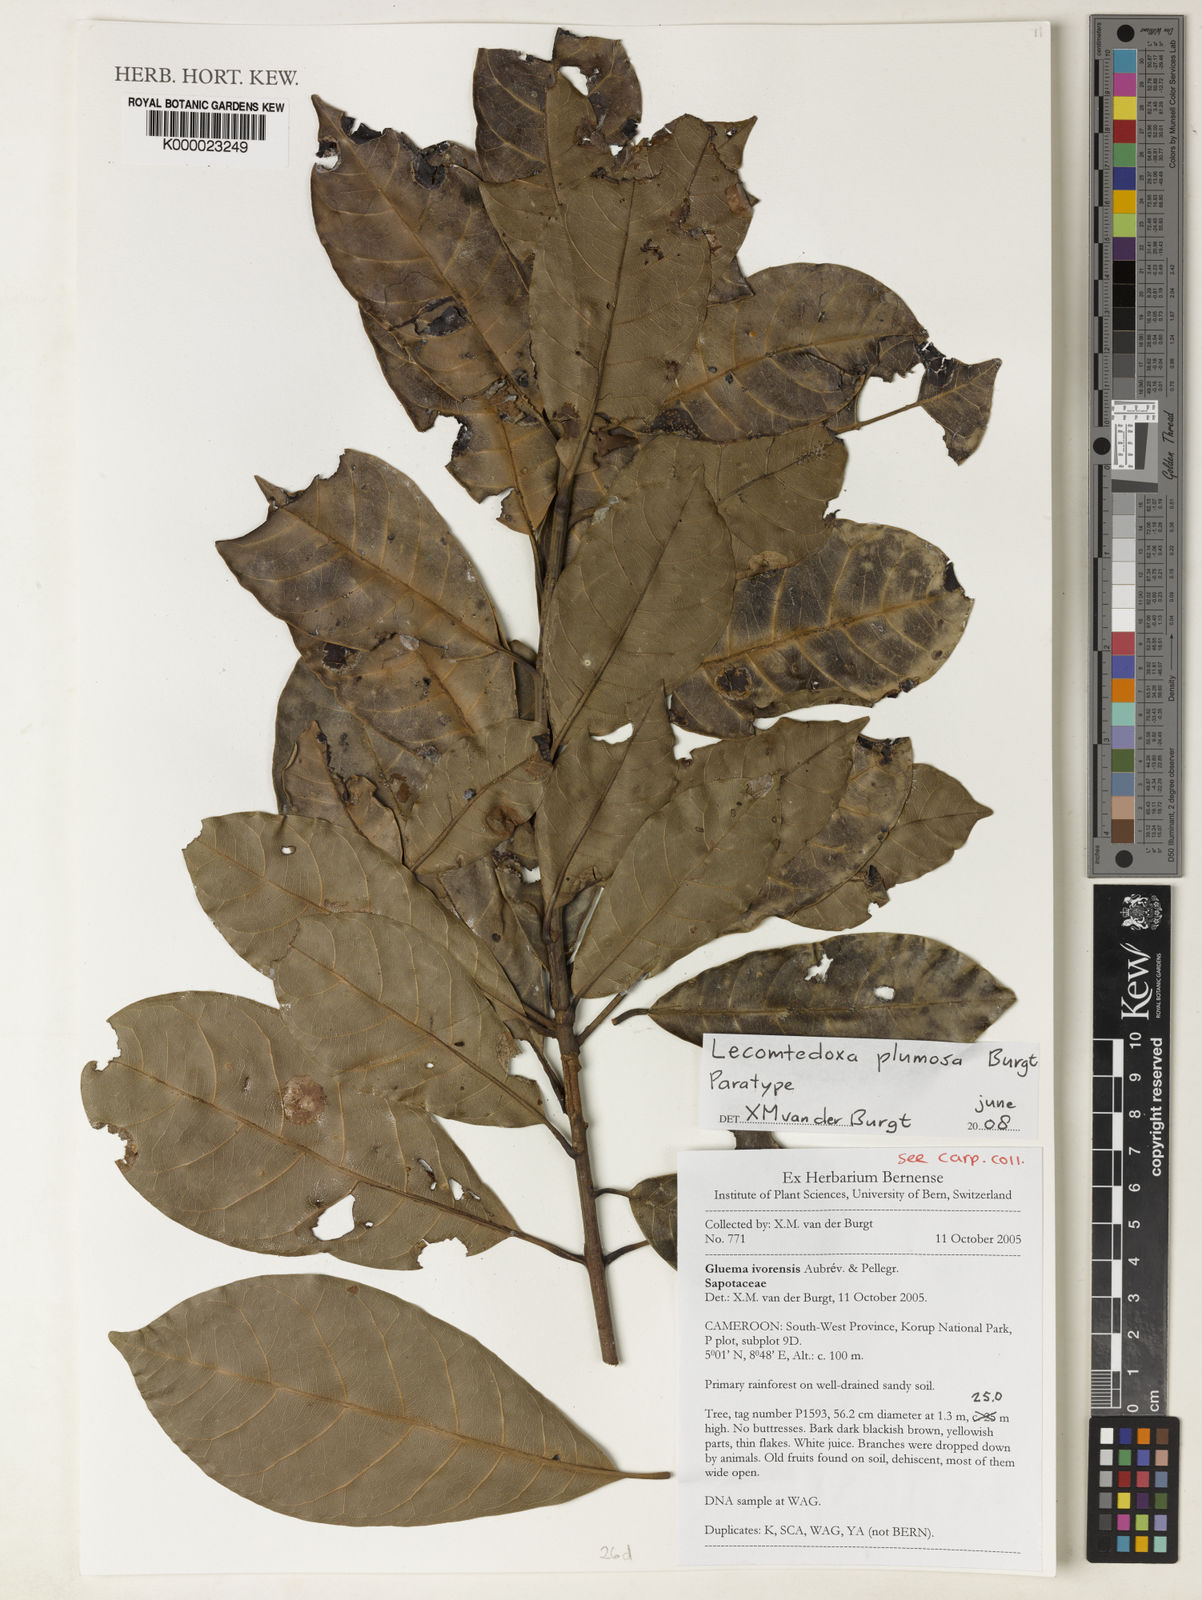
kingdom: Plantae
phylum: Tracheophyta
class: Magnoliopsida
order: Ericales
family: Sapotaceae
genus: Lecomtedoxa
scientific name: Lecomtedoxa plumosa
